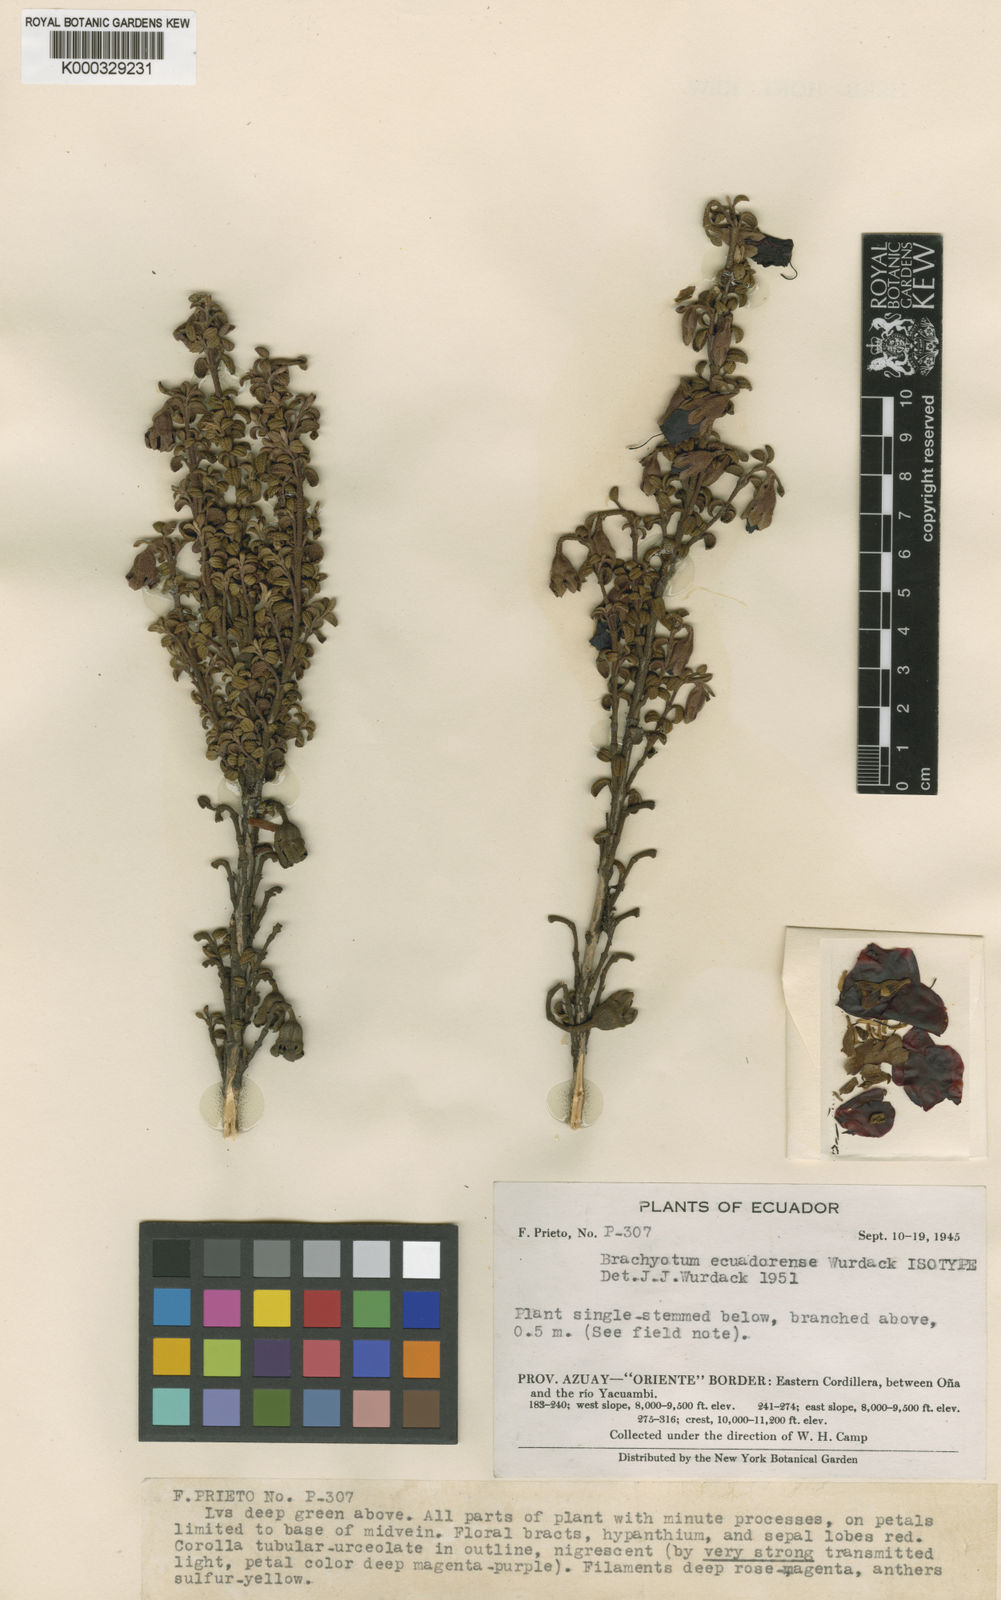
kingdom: Plantae
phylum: Tracheophyta
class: Magnoliopsida
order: Myrtales
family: Melastomataceae
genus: Brachyotum
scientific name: Brachyotum ecuadorense
